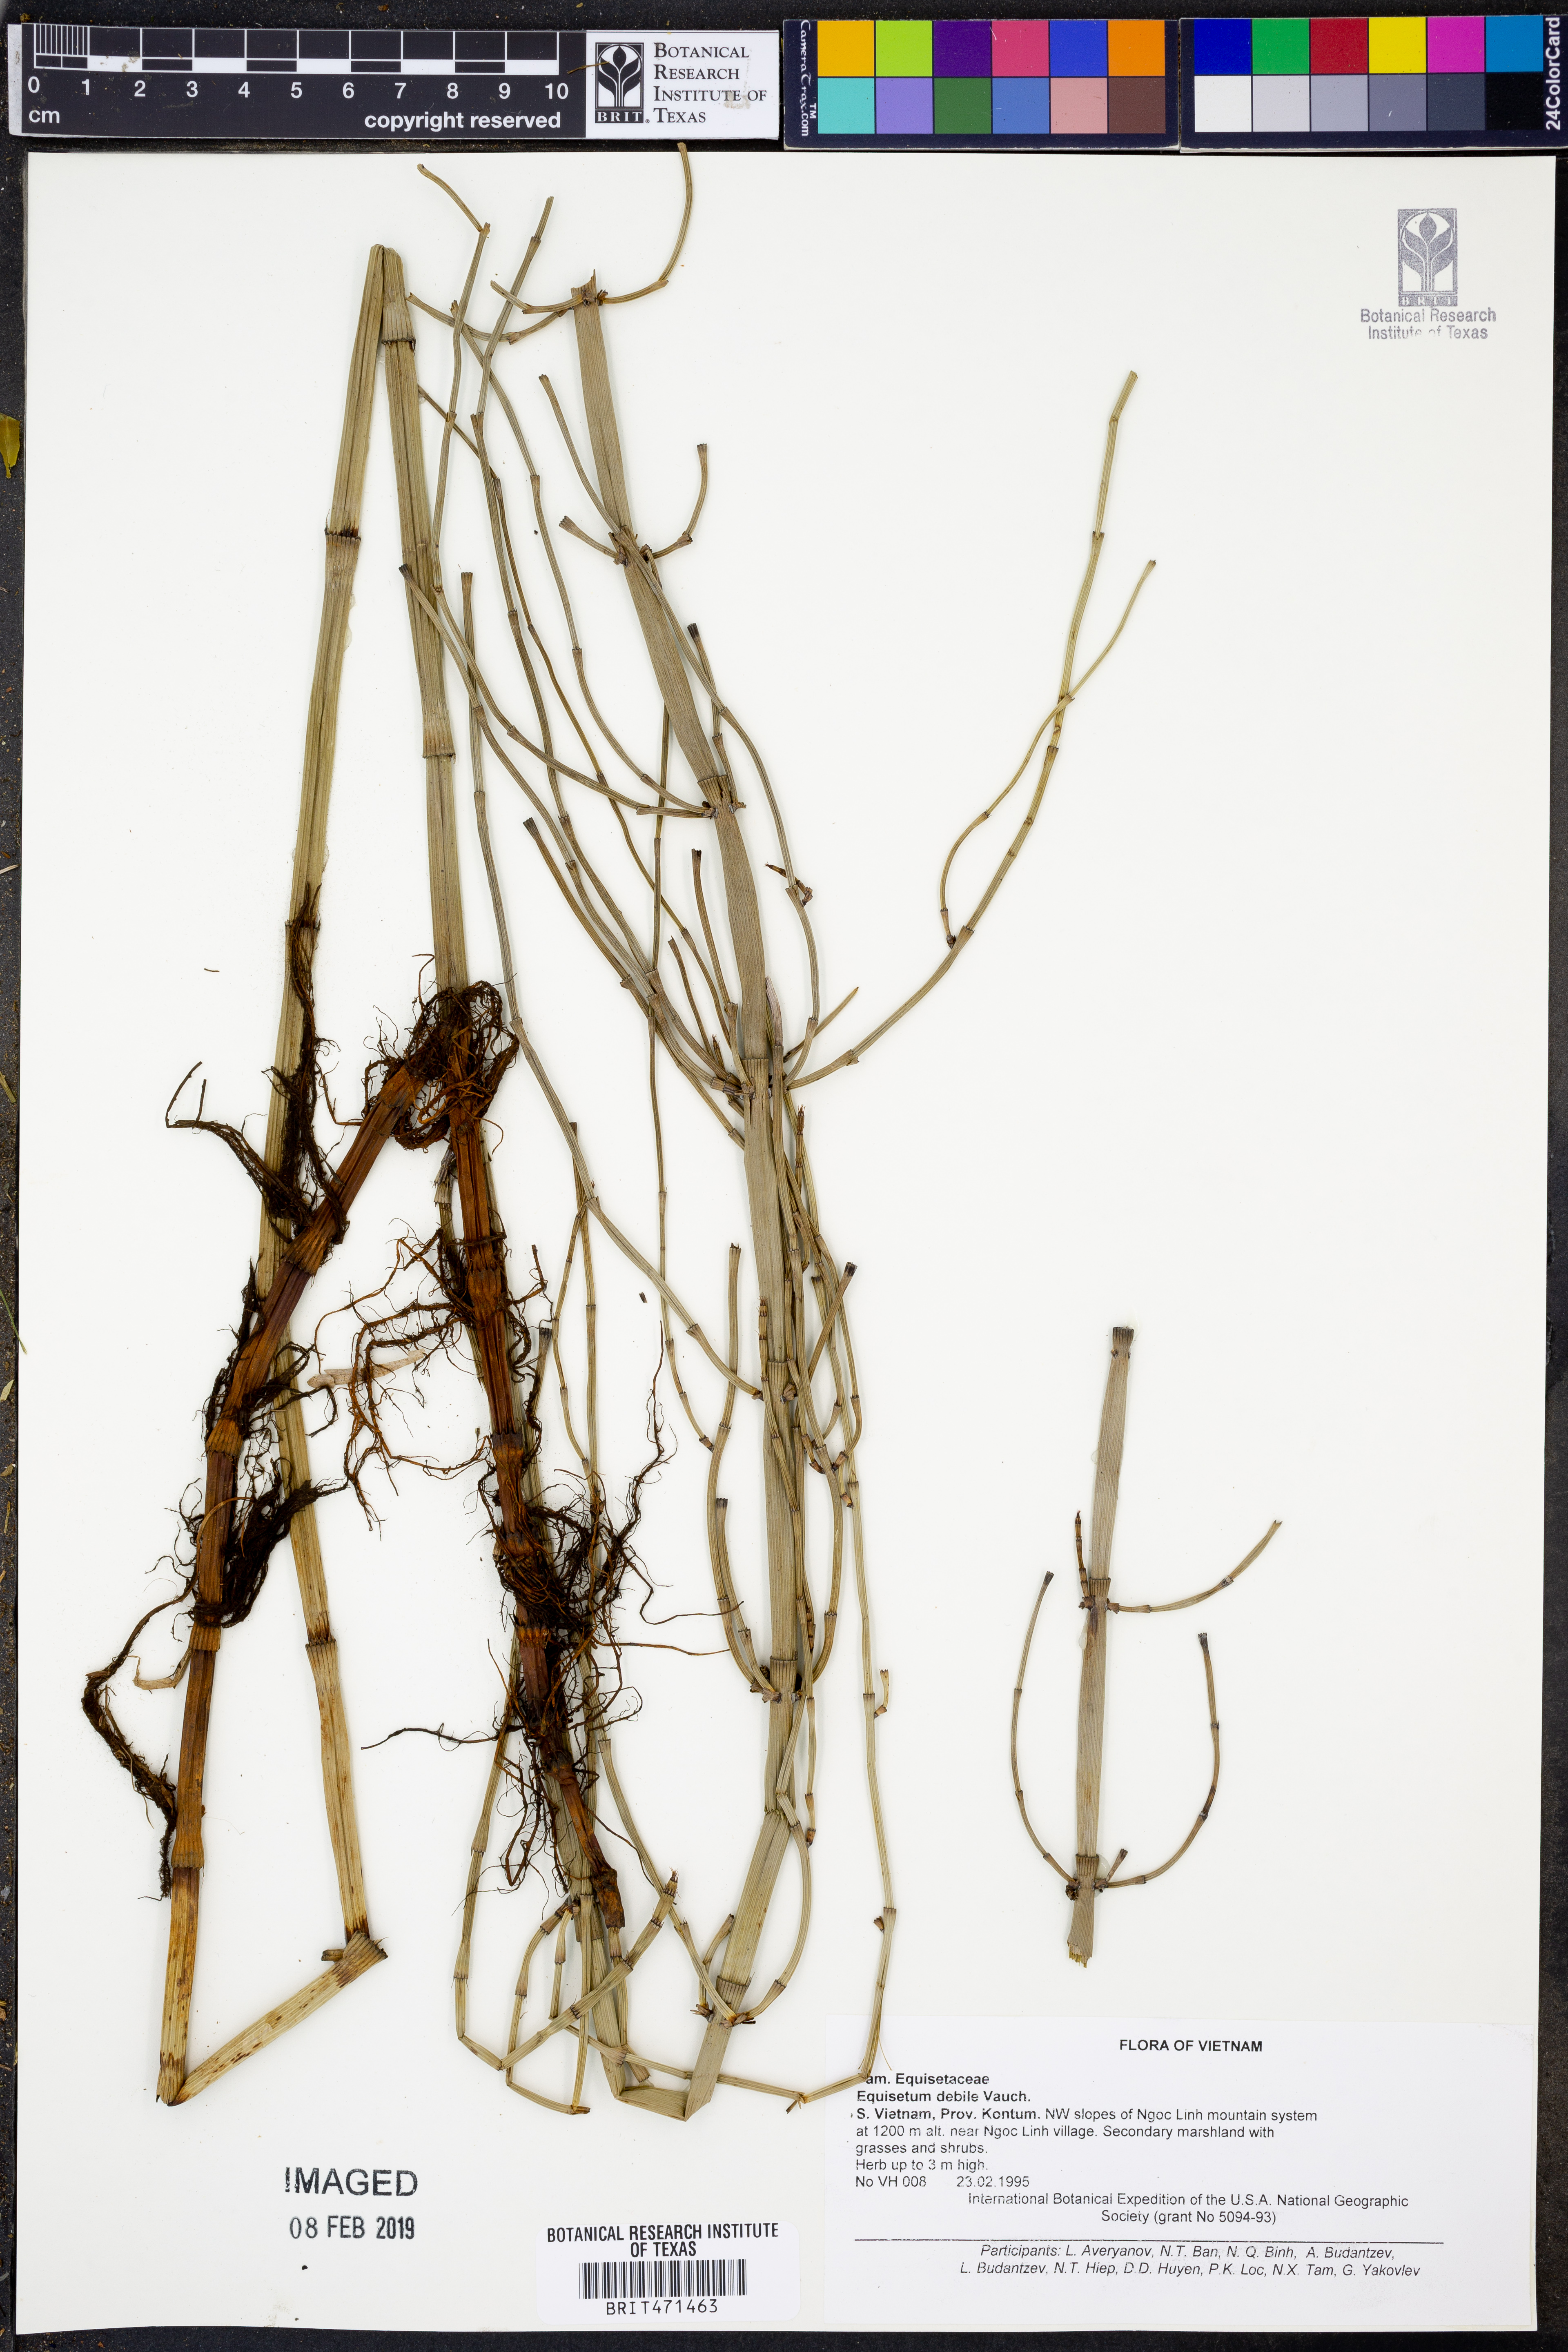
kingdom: Plantae
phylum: Tracheophyta
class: Polypodiopsida
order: Equisetales
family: Equisetaceae
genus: Equisetum
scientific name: Equisetum ramosissimum
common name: Branched horsetail
